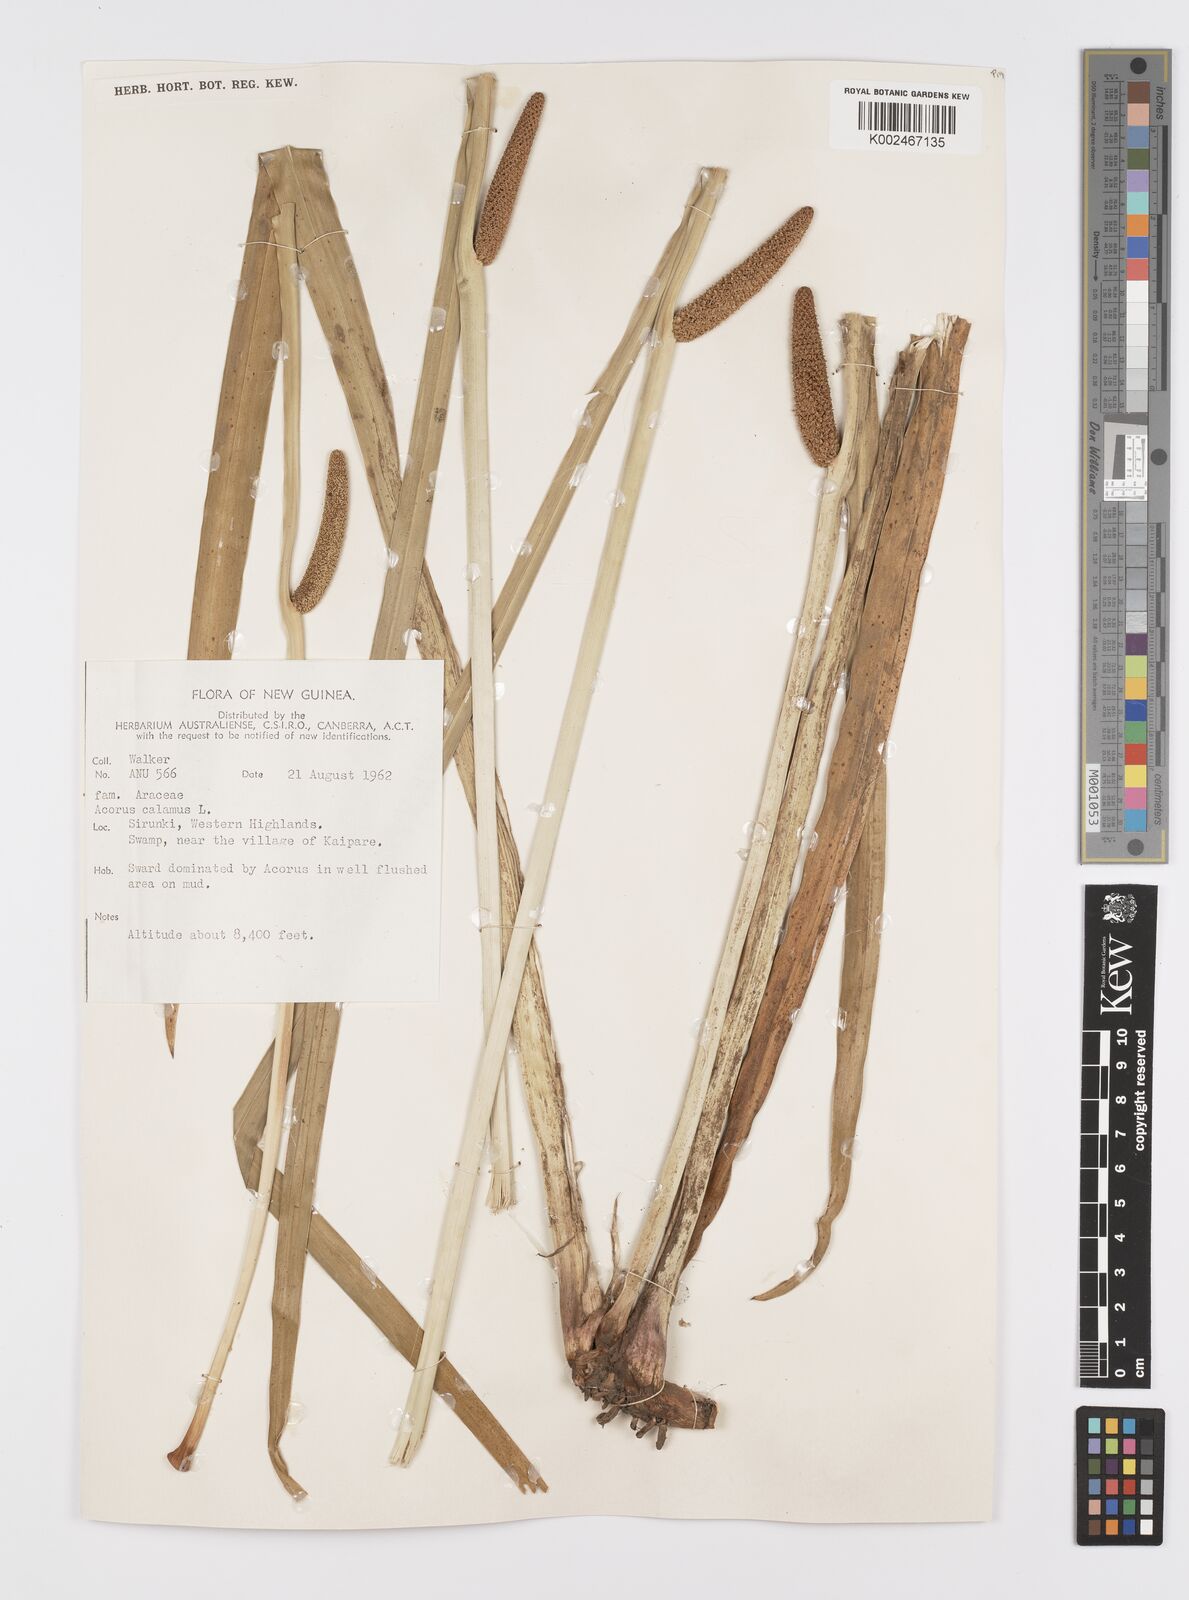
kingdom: Plantae
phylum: Tracheophyta
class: Liliopsida
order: Acorales
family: Acoraceae
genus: Acorus
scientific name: Acorus calamus
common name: Sweet-flag
